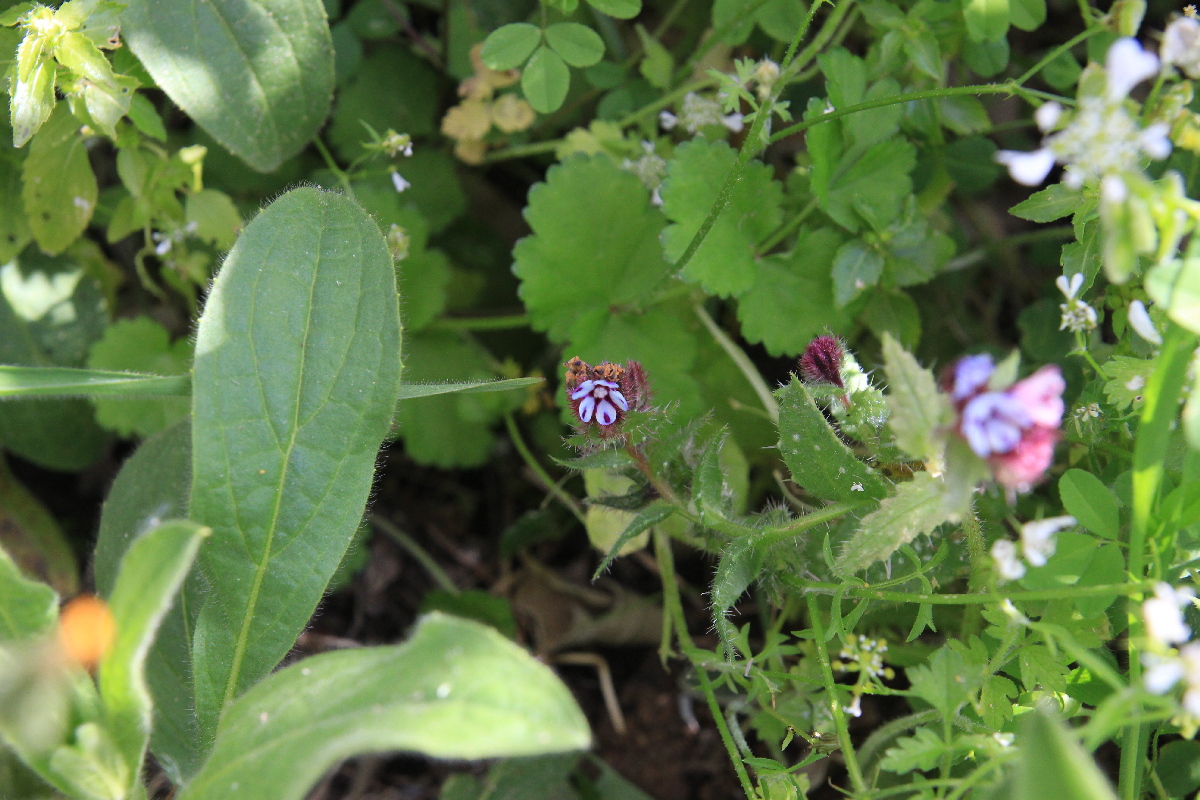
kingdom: Plantae
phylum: Tracheophyta
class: Magnoliopsida
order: Boraginales
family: Boraginaceae
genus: Anchusella
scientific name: Anchusella variegata
